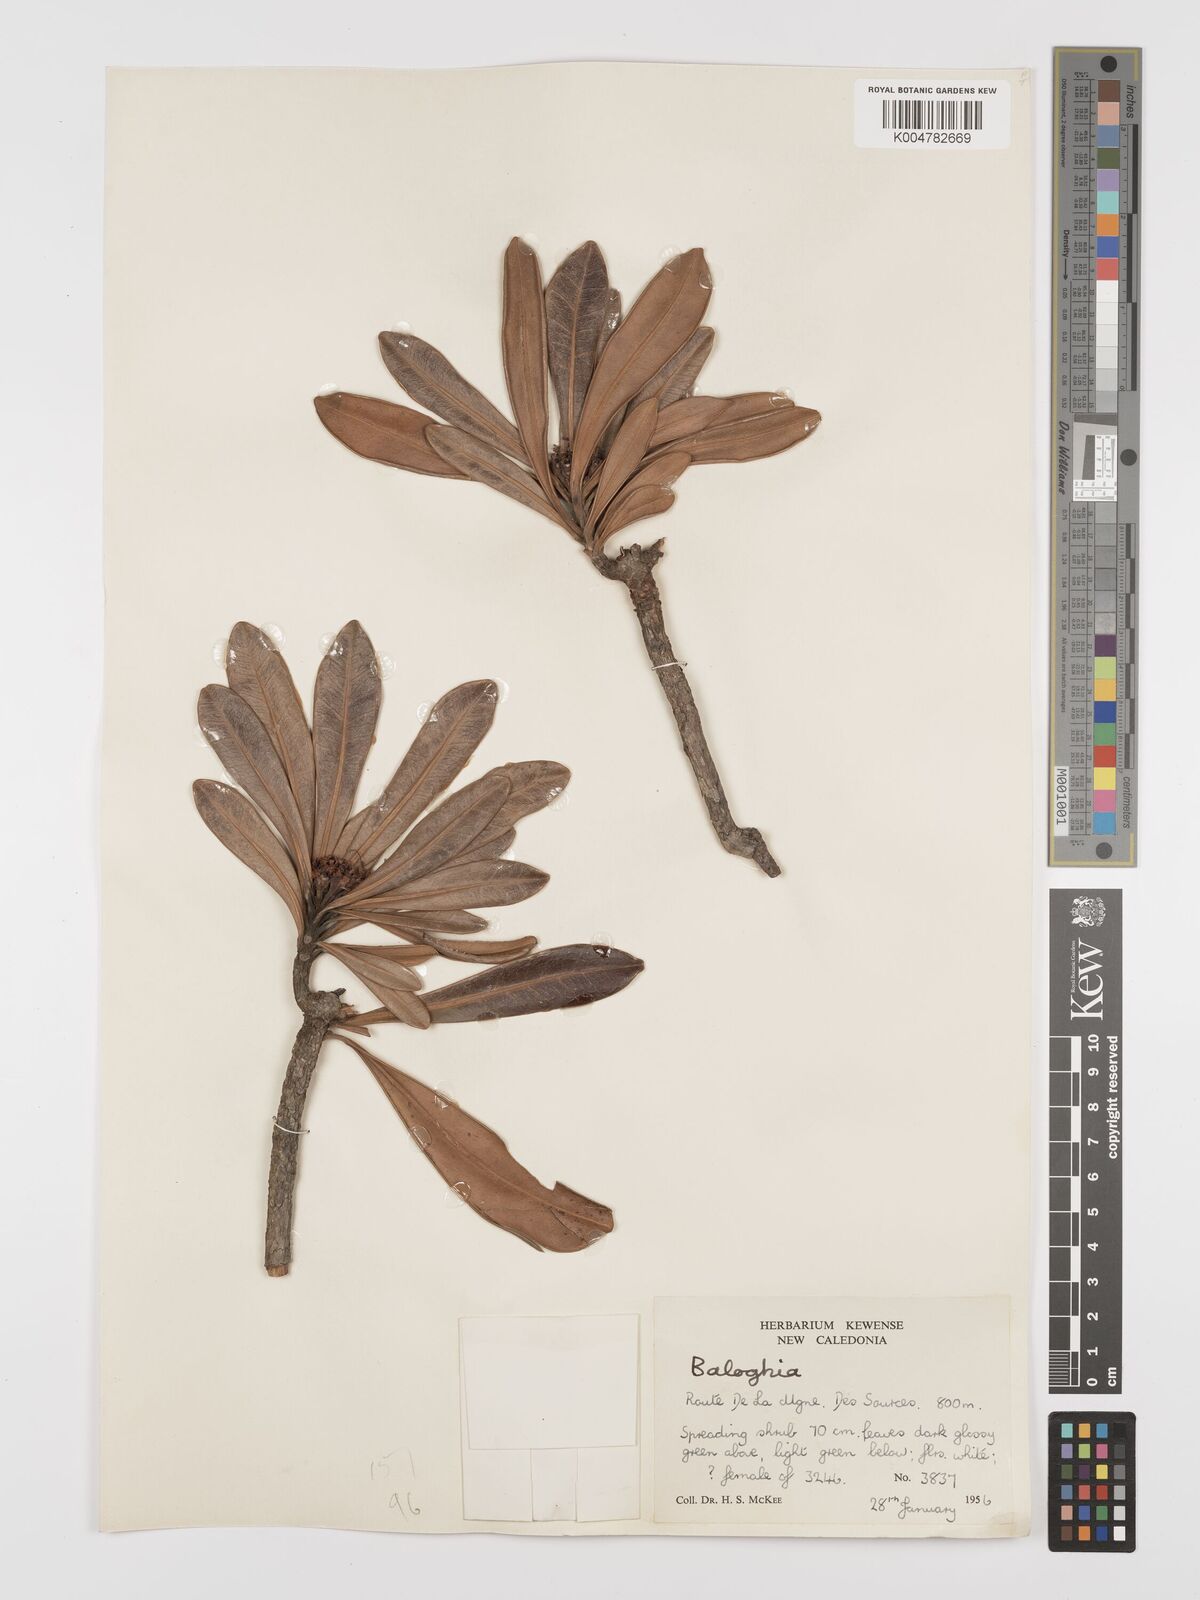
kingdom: Plantae
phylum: Tracheophyta
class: Magnoliopsida
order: Malpighiales
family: Euphorbiaceae
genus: Baloghia
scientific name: Baloghia buchholzii
